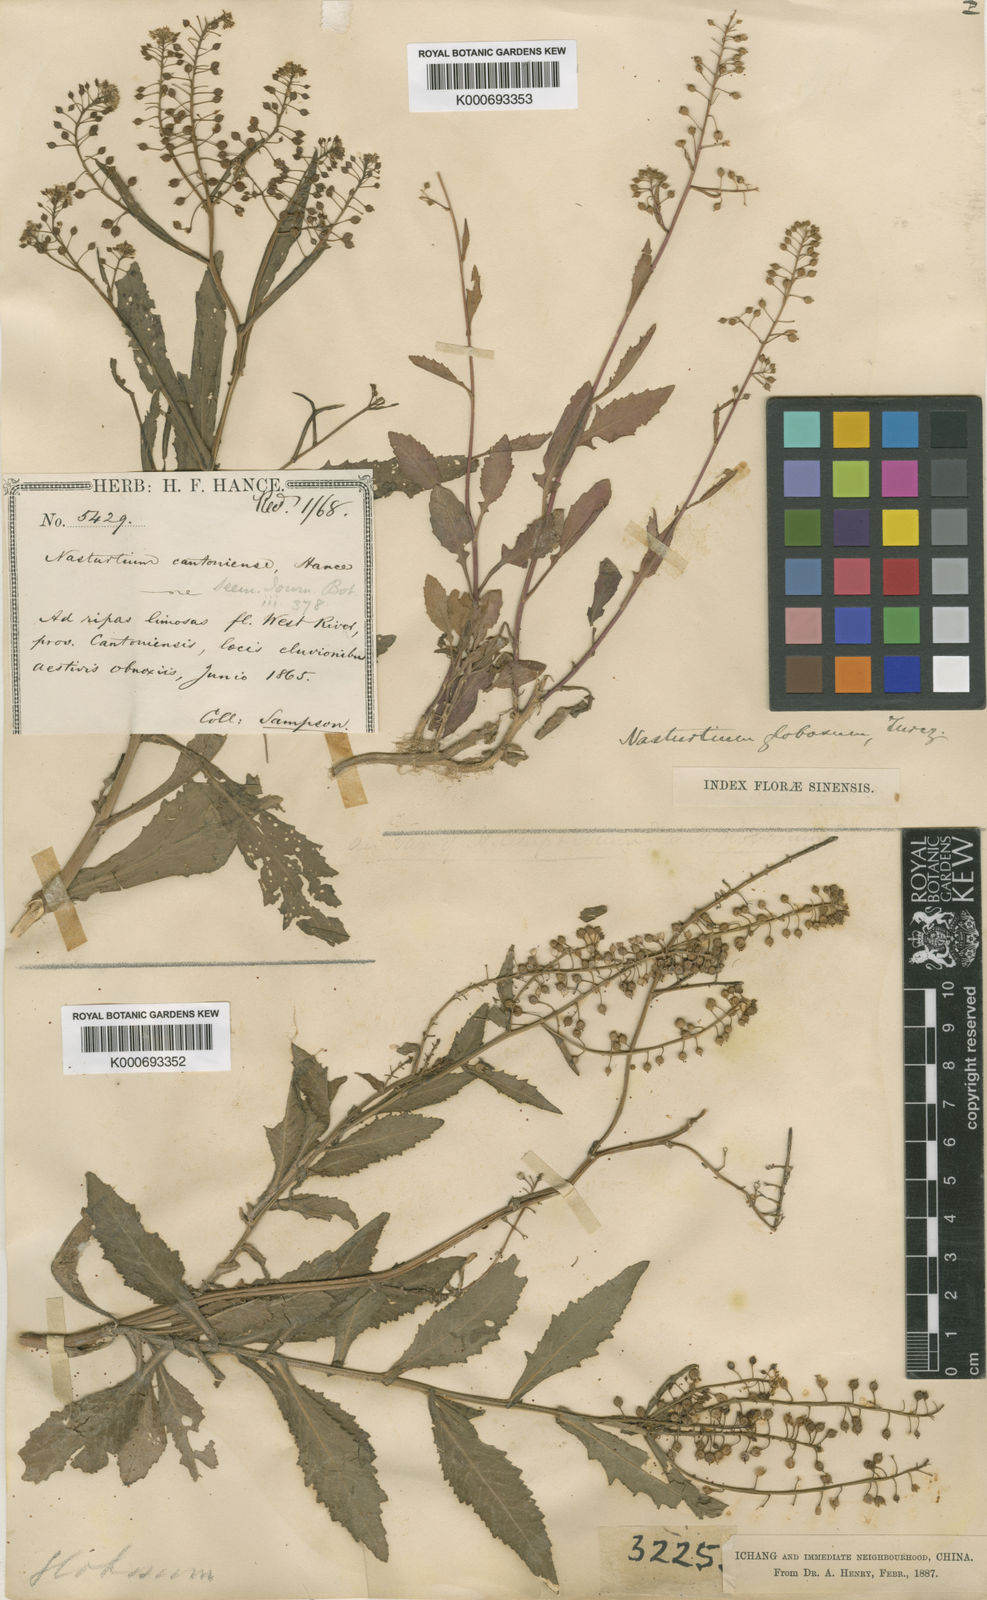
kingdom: Plantae
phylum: Tracheophyta
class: Magnoliopsida
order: Brassicales
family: Brassicaceae
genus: Rorippa
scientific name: Rorippa globosa
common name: Globe yellowcress
